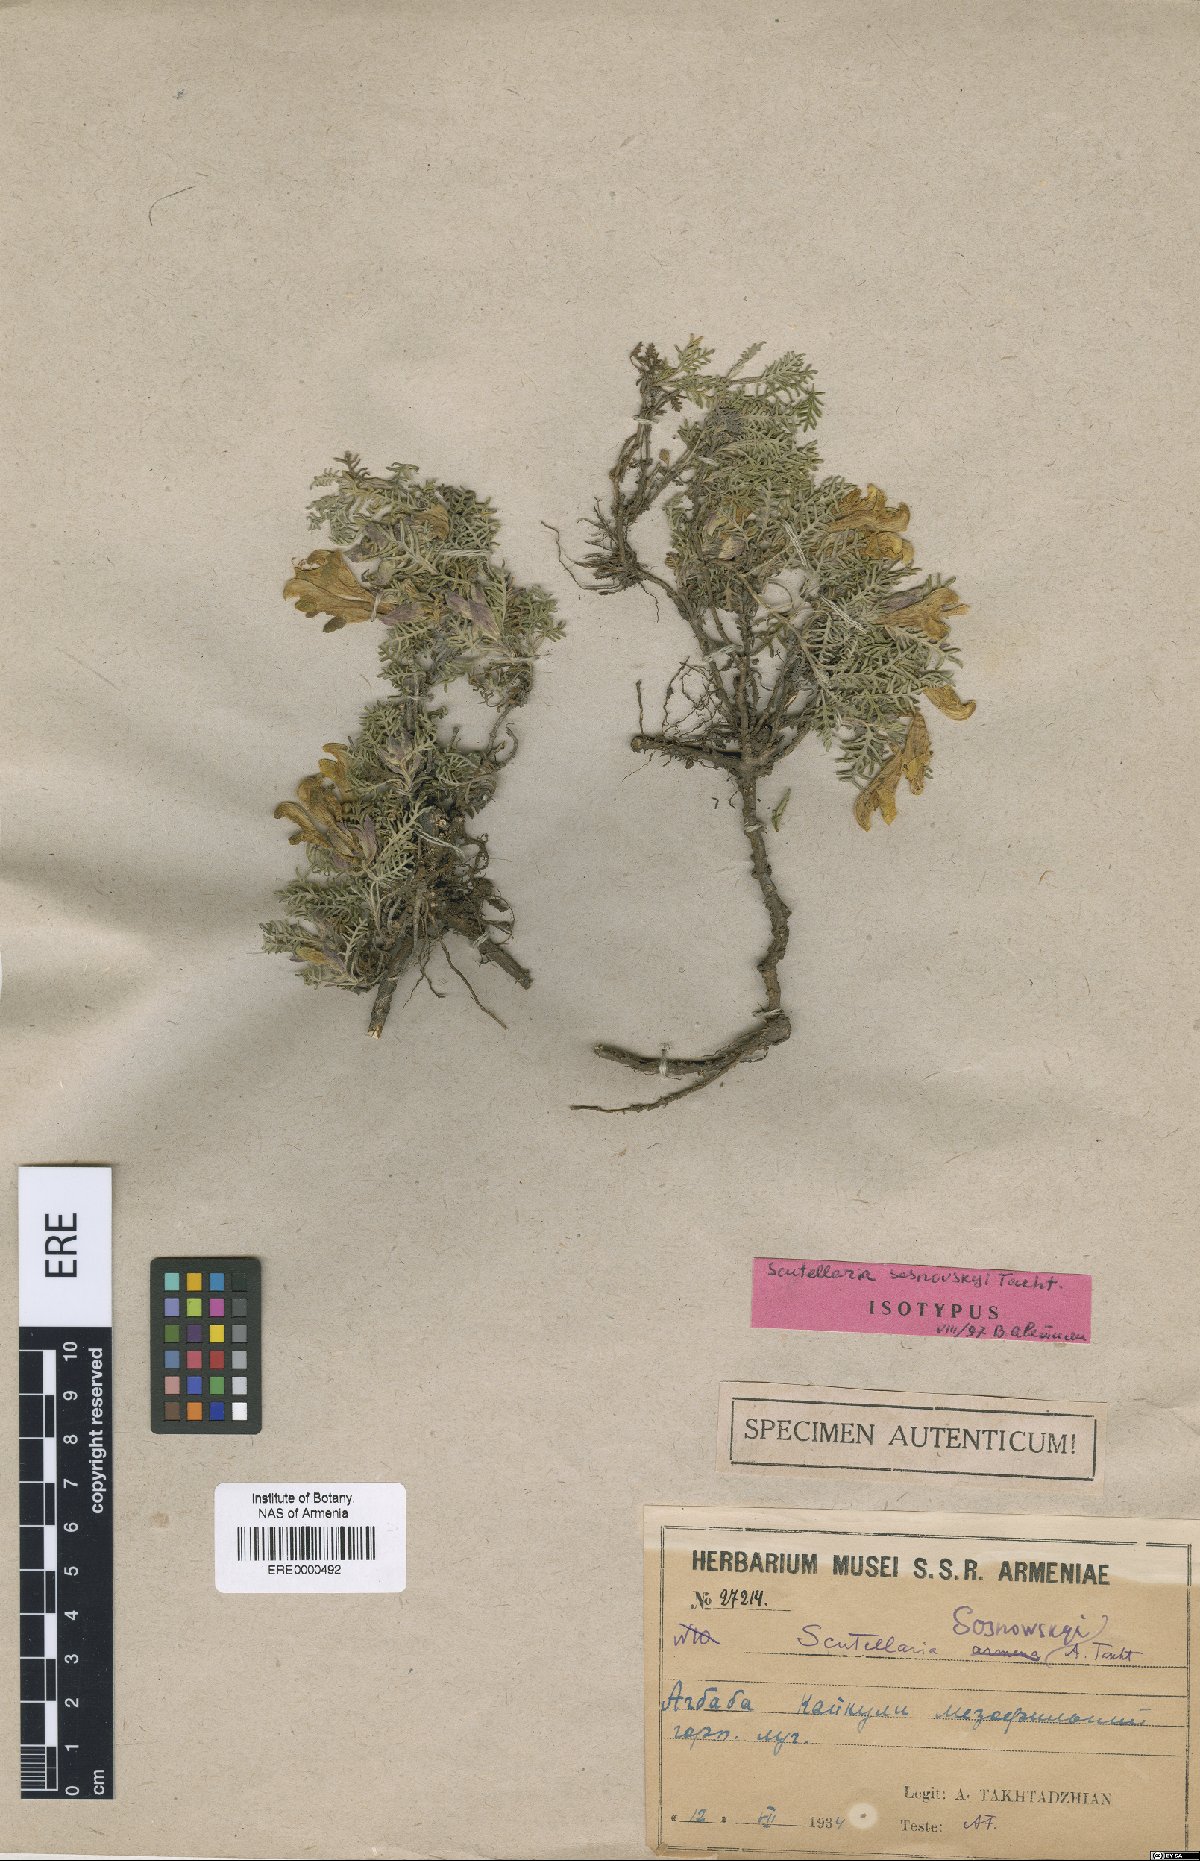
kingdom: Plantae
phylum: Tracheophyta
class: Magnoliopsida
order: Lamiales
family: Lamiaceae
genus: Scutellaria
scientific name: Scutellaria sosnowskyi
